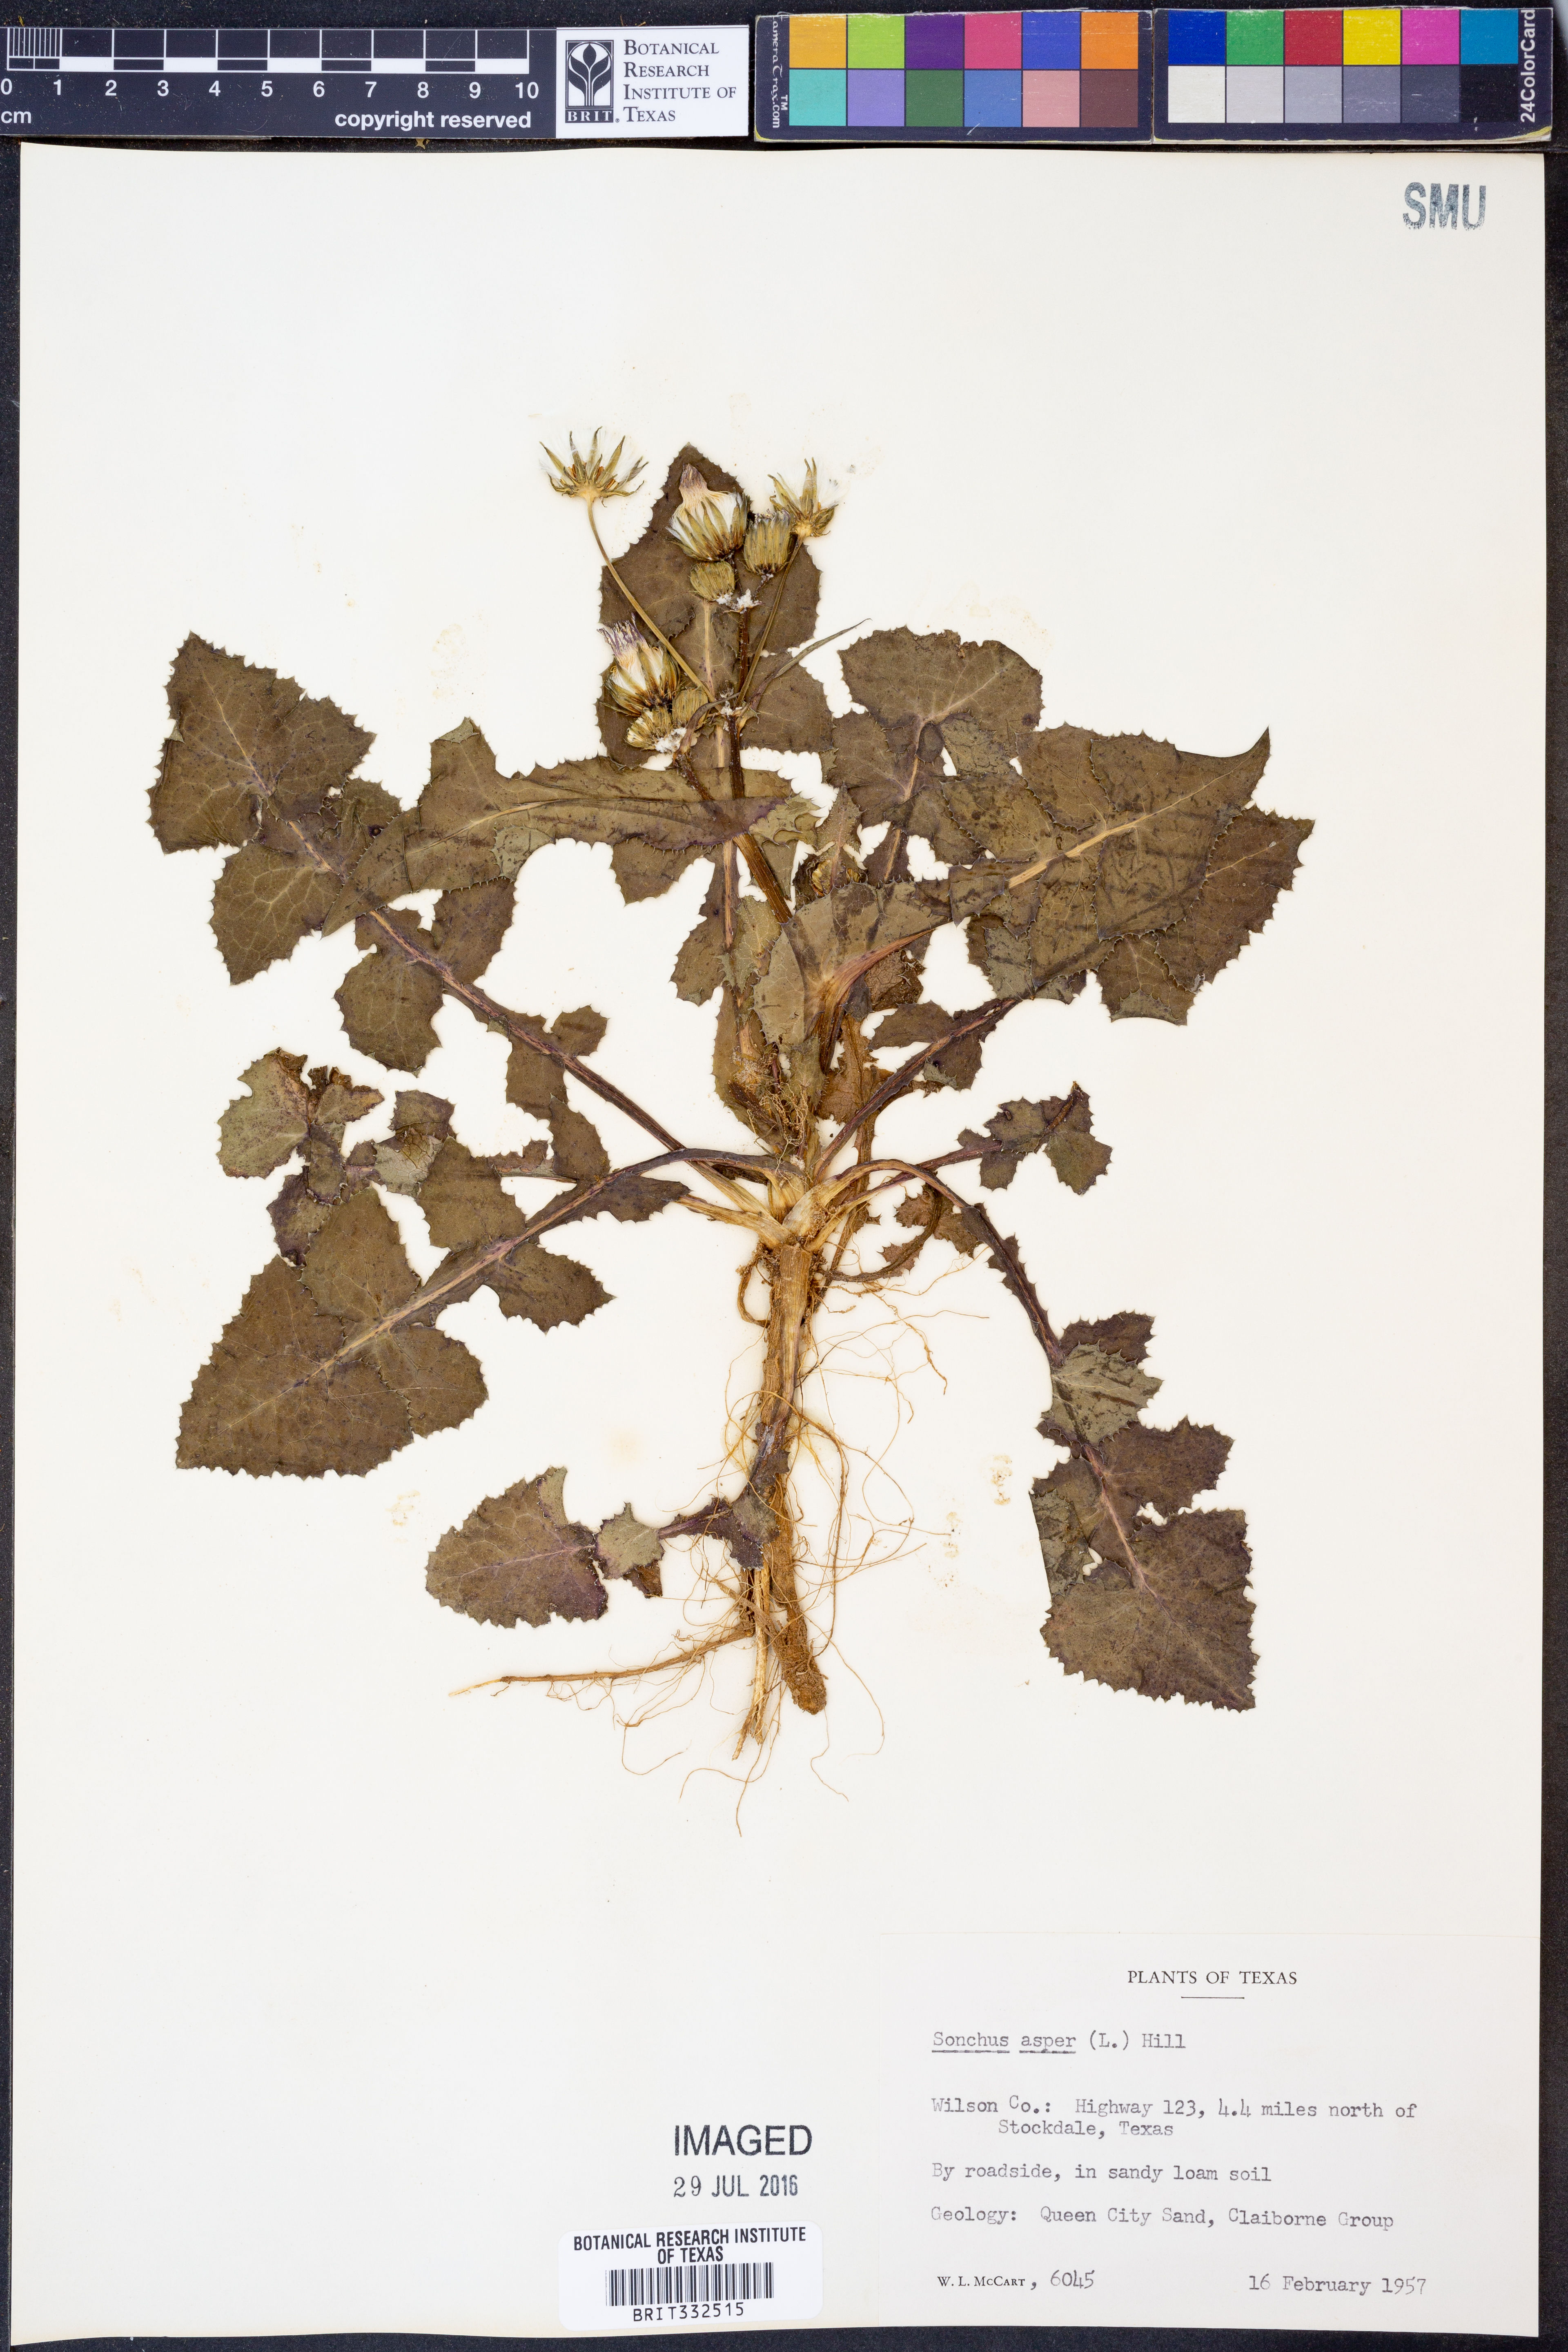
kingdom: Plantae
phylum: Tracheophyta
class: Magnoliopsida
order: Asterales
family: Asteraceae
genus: Sonchus
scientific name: Sonchus asper
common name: Prickly sow-thistle
